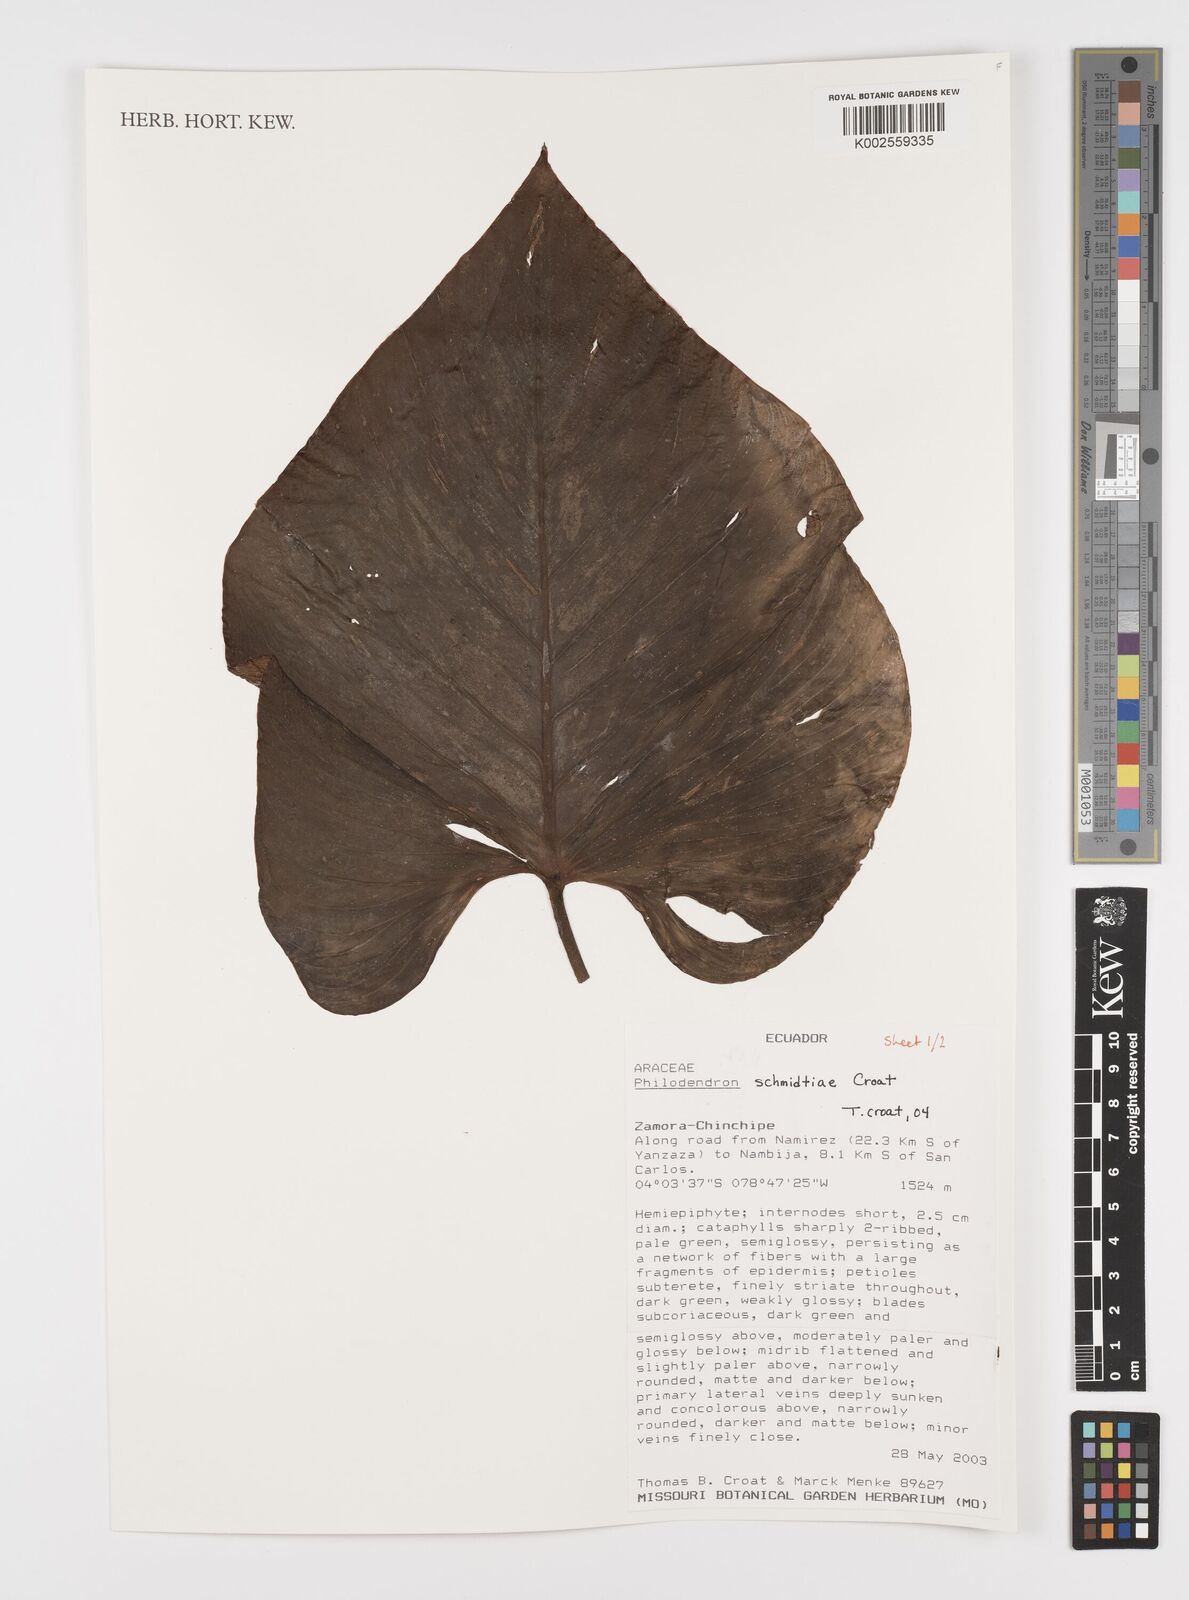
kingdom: Plantae
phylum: Tracheophyta
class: Liliopsida
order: Alismatales
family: Araceae
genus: Philodendron
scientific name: Philodendron schmidtiae
